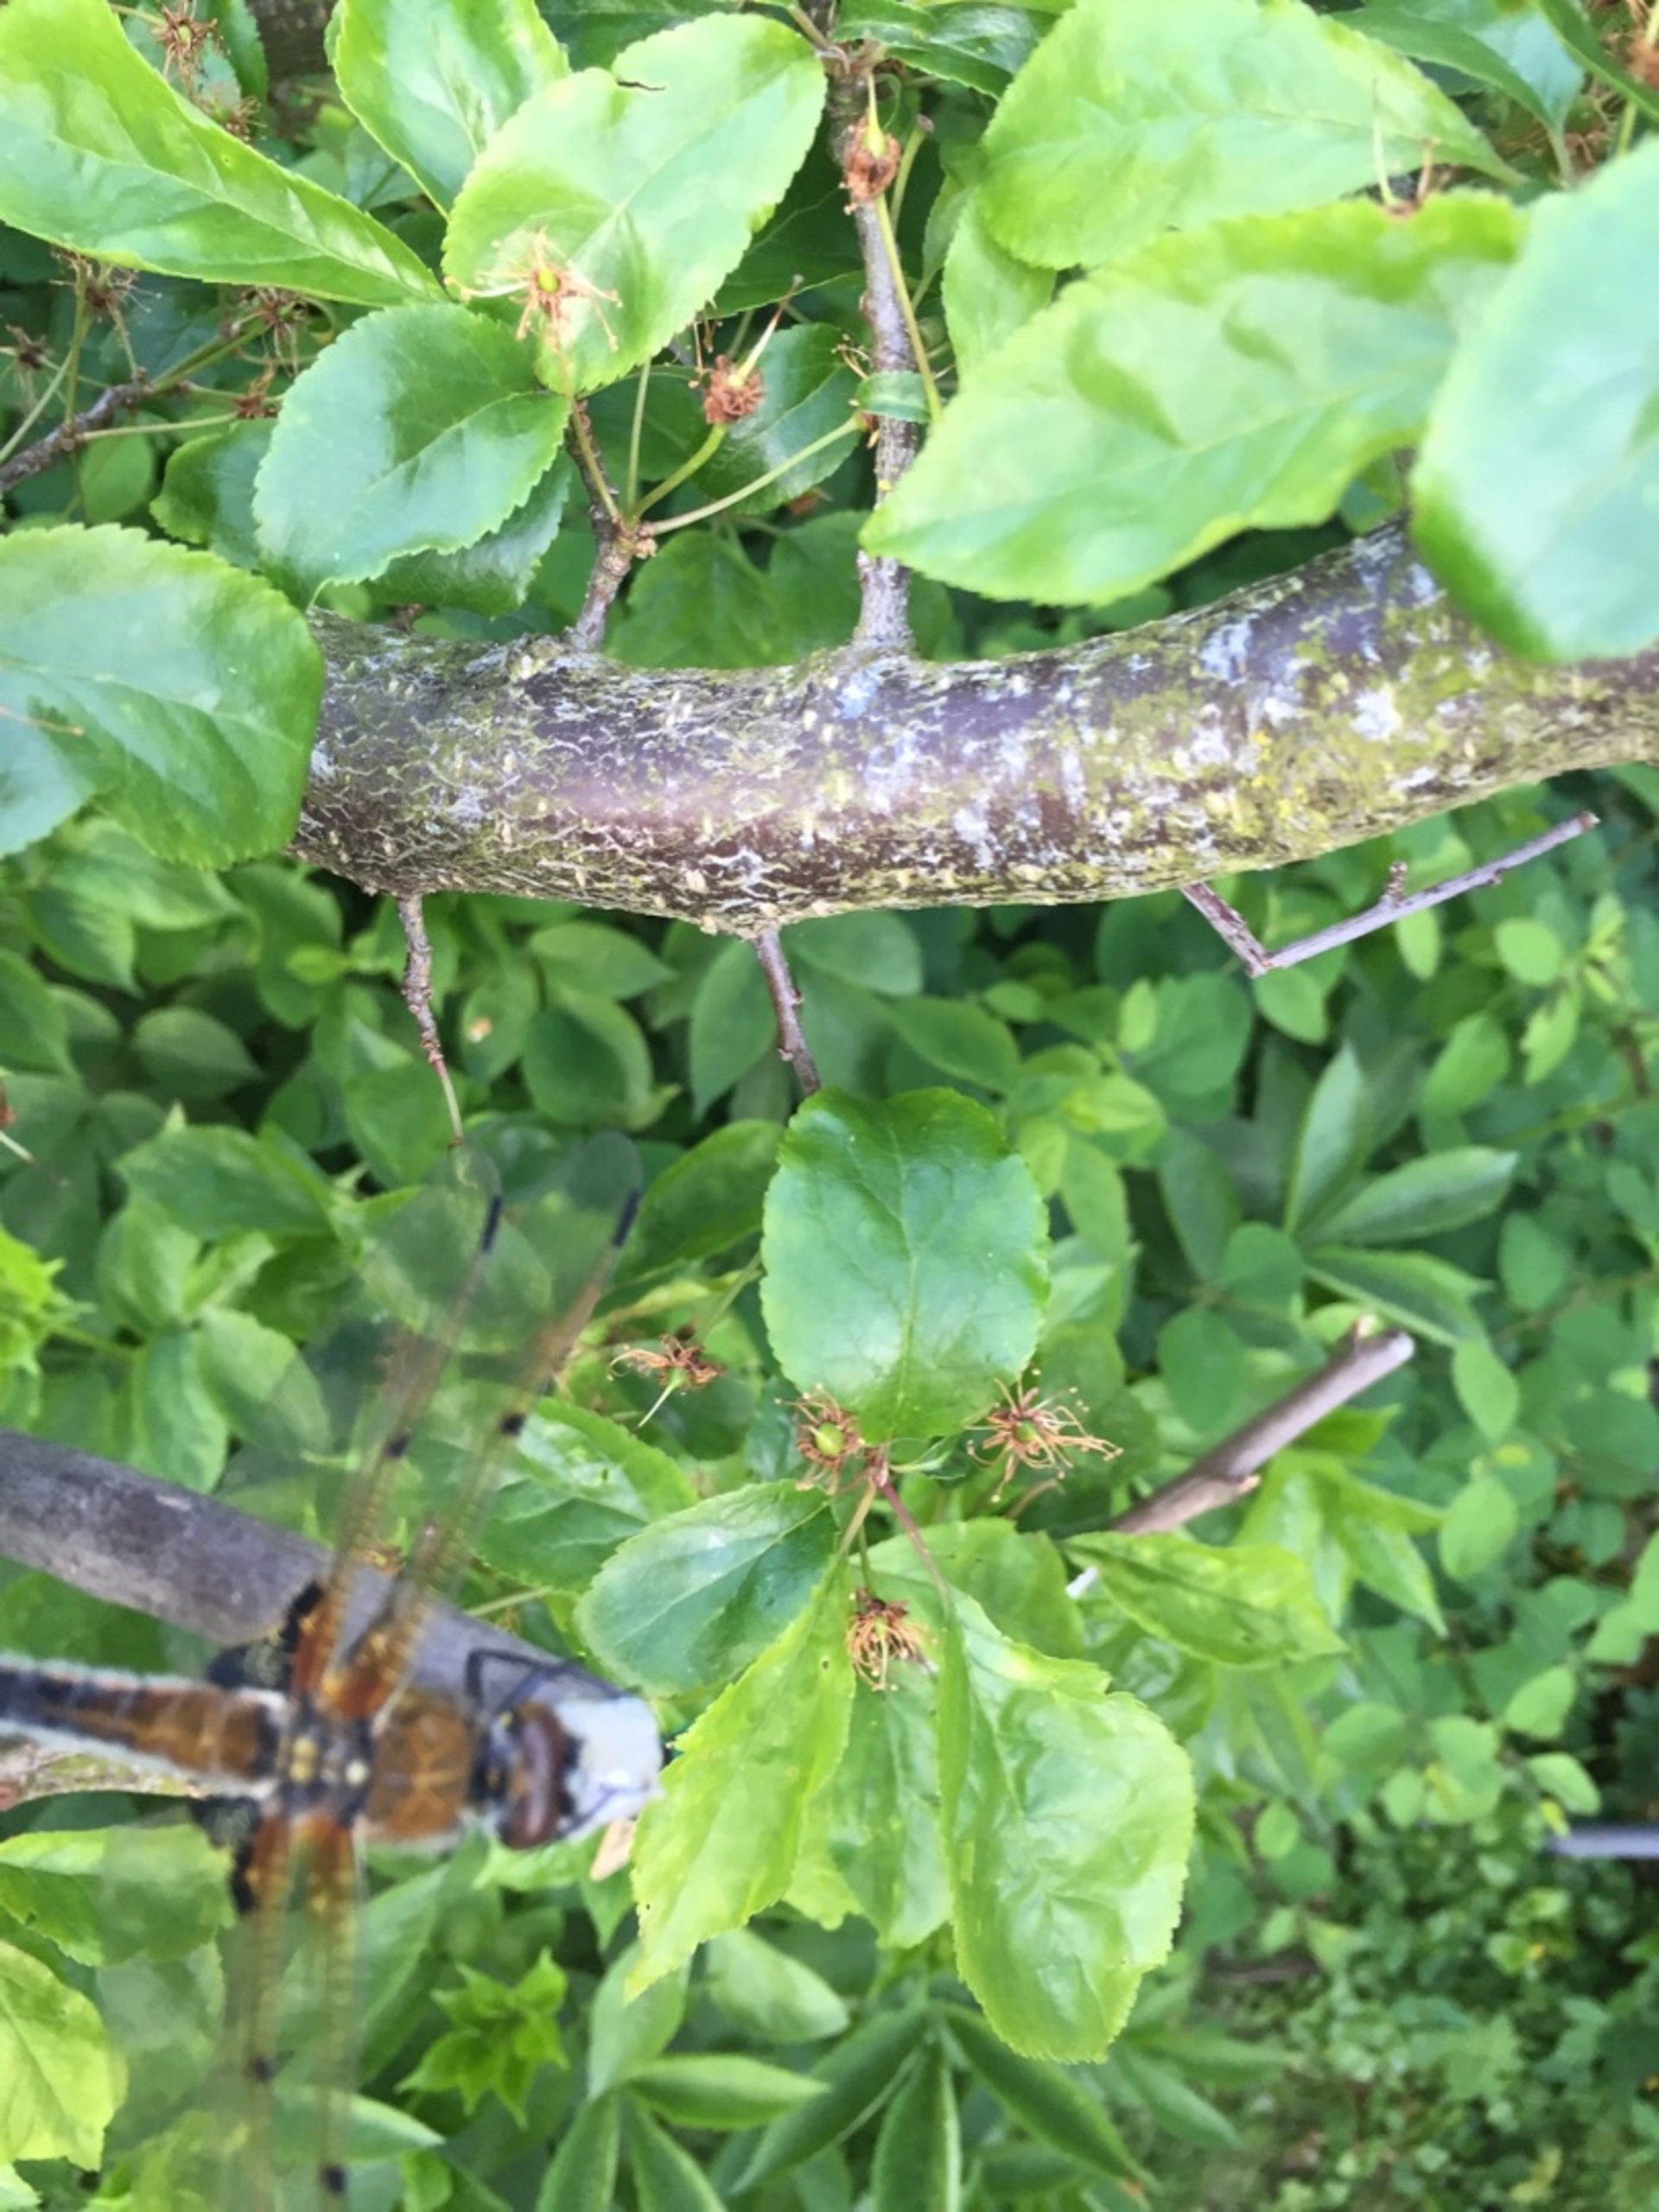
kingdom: Animalia
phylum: Arthropoda
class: Insecta
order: Odonata
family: Libellulidae
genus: Libellula
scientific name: Libellula quadrimaculata
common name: Fireplettet libel
